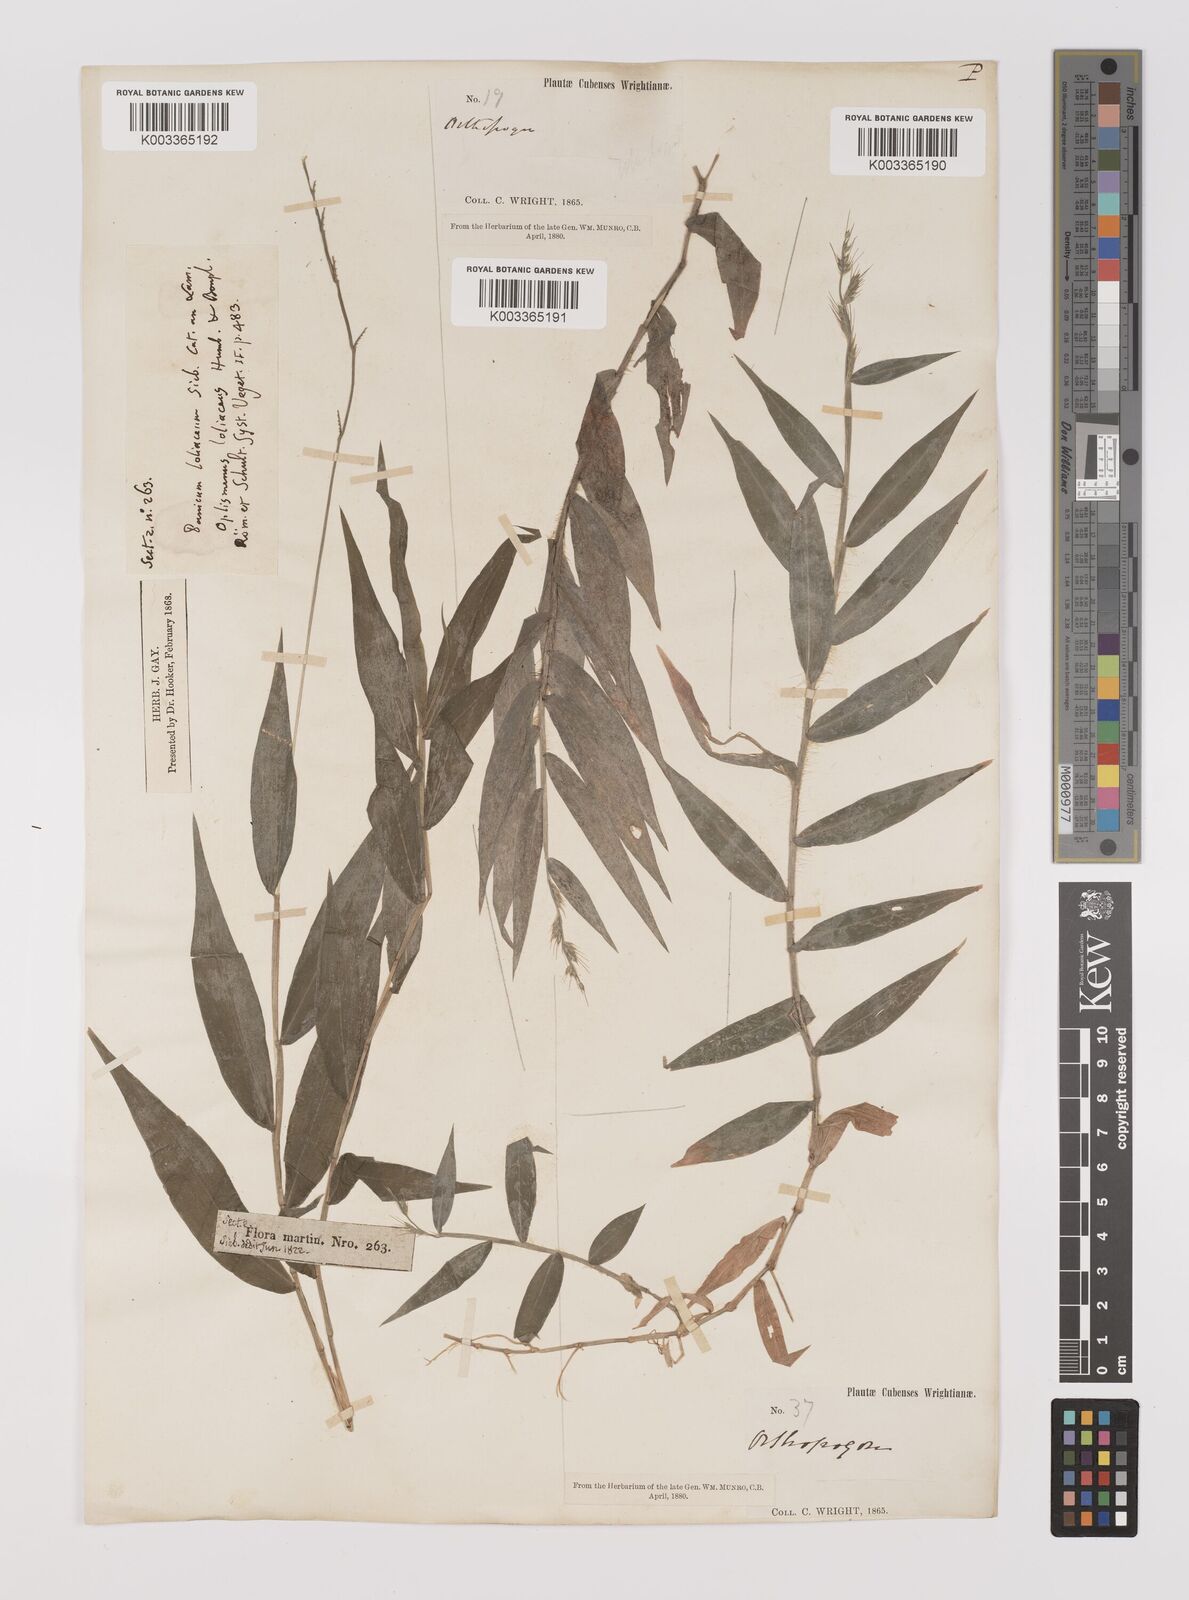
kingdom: Plantae
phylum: Tracheophyta
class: Liliopsida
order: Poales
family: Poaceae
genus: Oplismenus
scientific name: Oplismenus hirtellus
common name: Basketgrass
